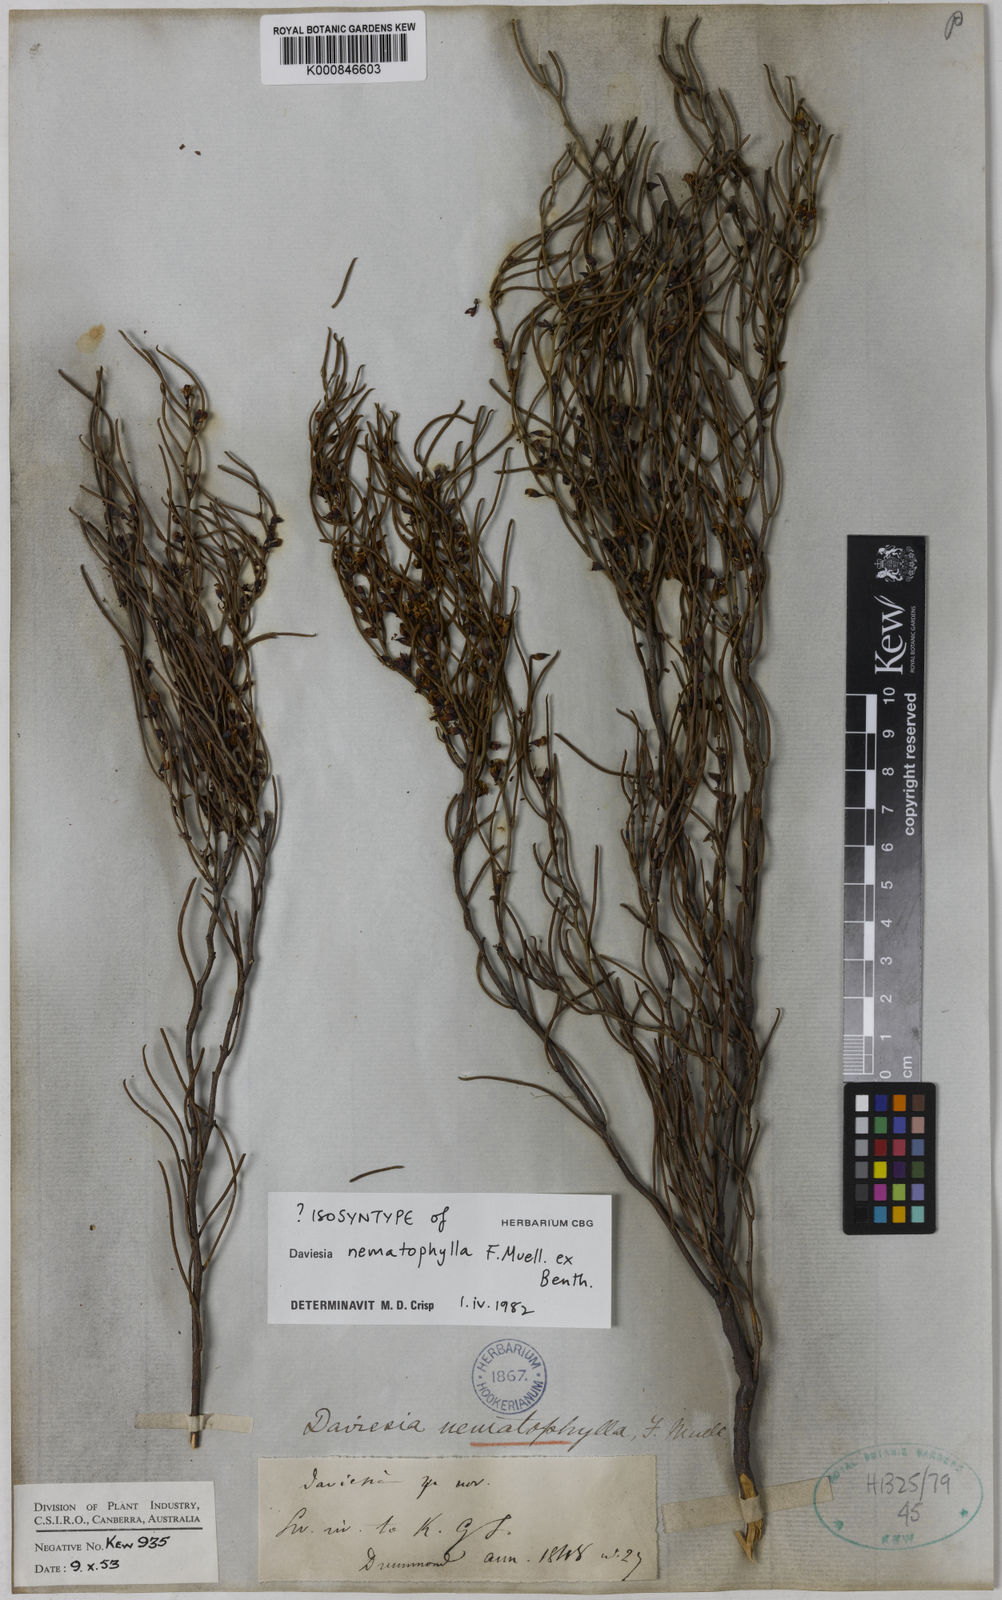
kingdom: Plantae
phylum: Tracheophyta
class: Magnoliopsida
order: Fabales
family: Fabaceae
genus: Daviesia
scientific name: Daviesia nematophylla
